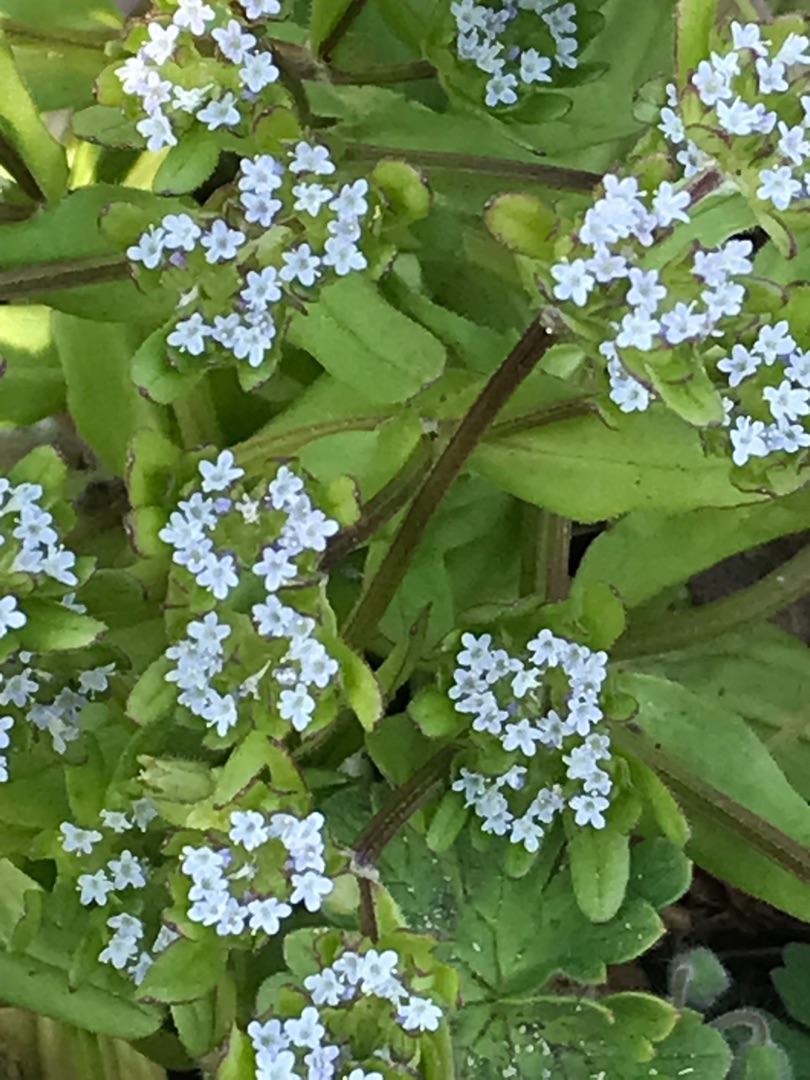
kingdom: Plantae
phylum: Tracheophyta
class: Magnoliopsida
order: Dipsacales
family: Caprifoliaceae
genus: Valerianella
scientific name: Valerianella locusta
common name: Tandfri vårsalat
